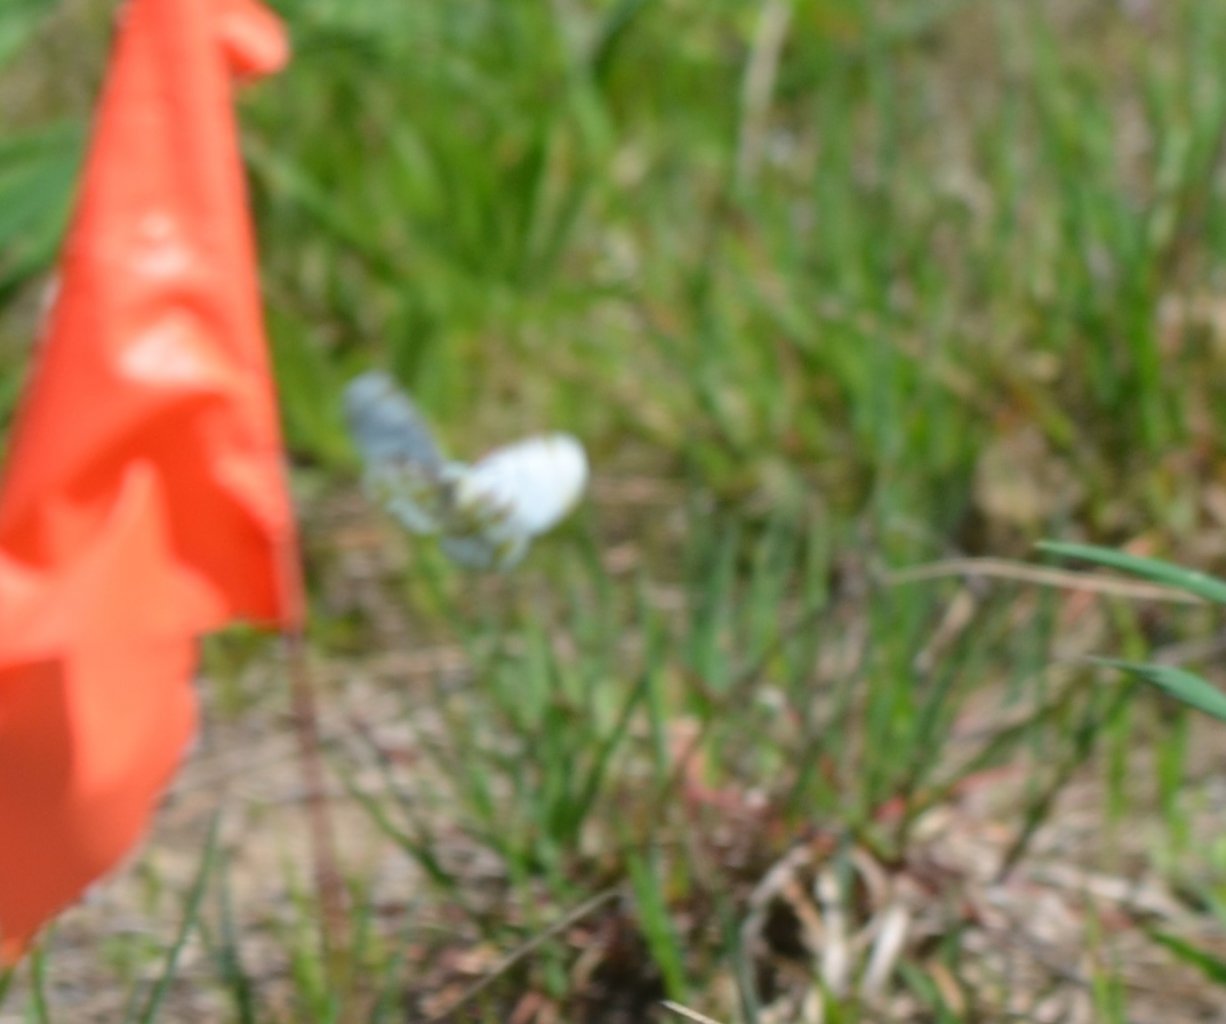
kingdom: Animalia
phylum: Arthropoda
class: Insecta
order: Lepidoptera
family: Pieridae
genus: Euchloe
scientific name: Euchloe olympia
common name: Olympia Marble
